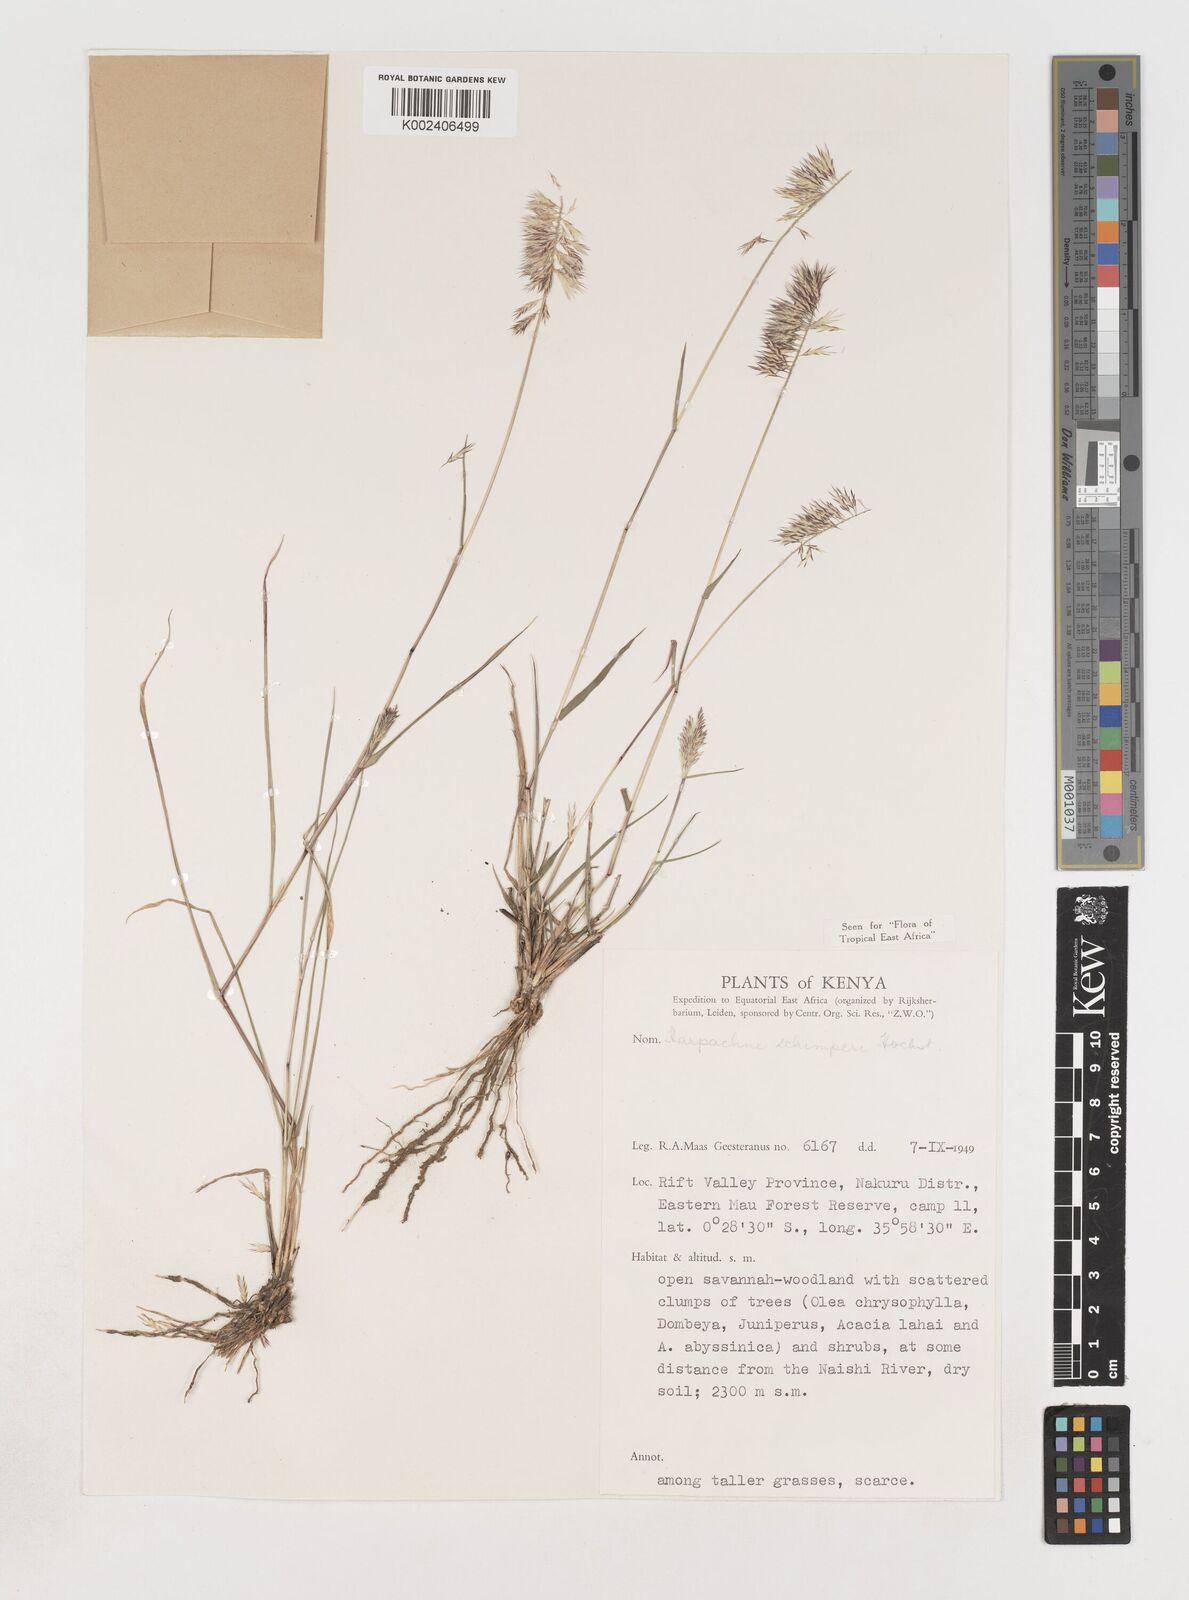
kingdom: Plantae
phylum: Tracheophyta
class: Liliopsida
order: Poales
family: Poaceae
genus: Harpachne
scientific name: Harpachne schimperi
